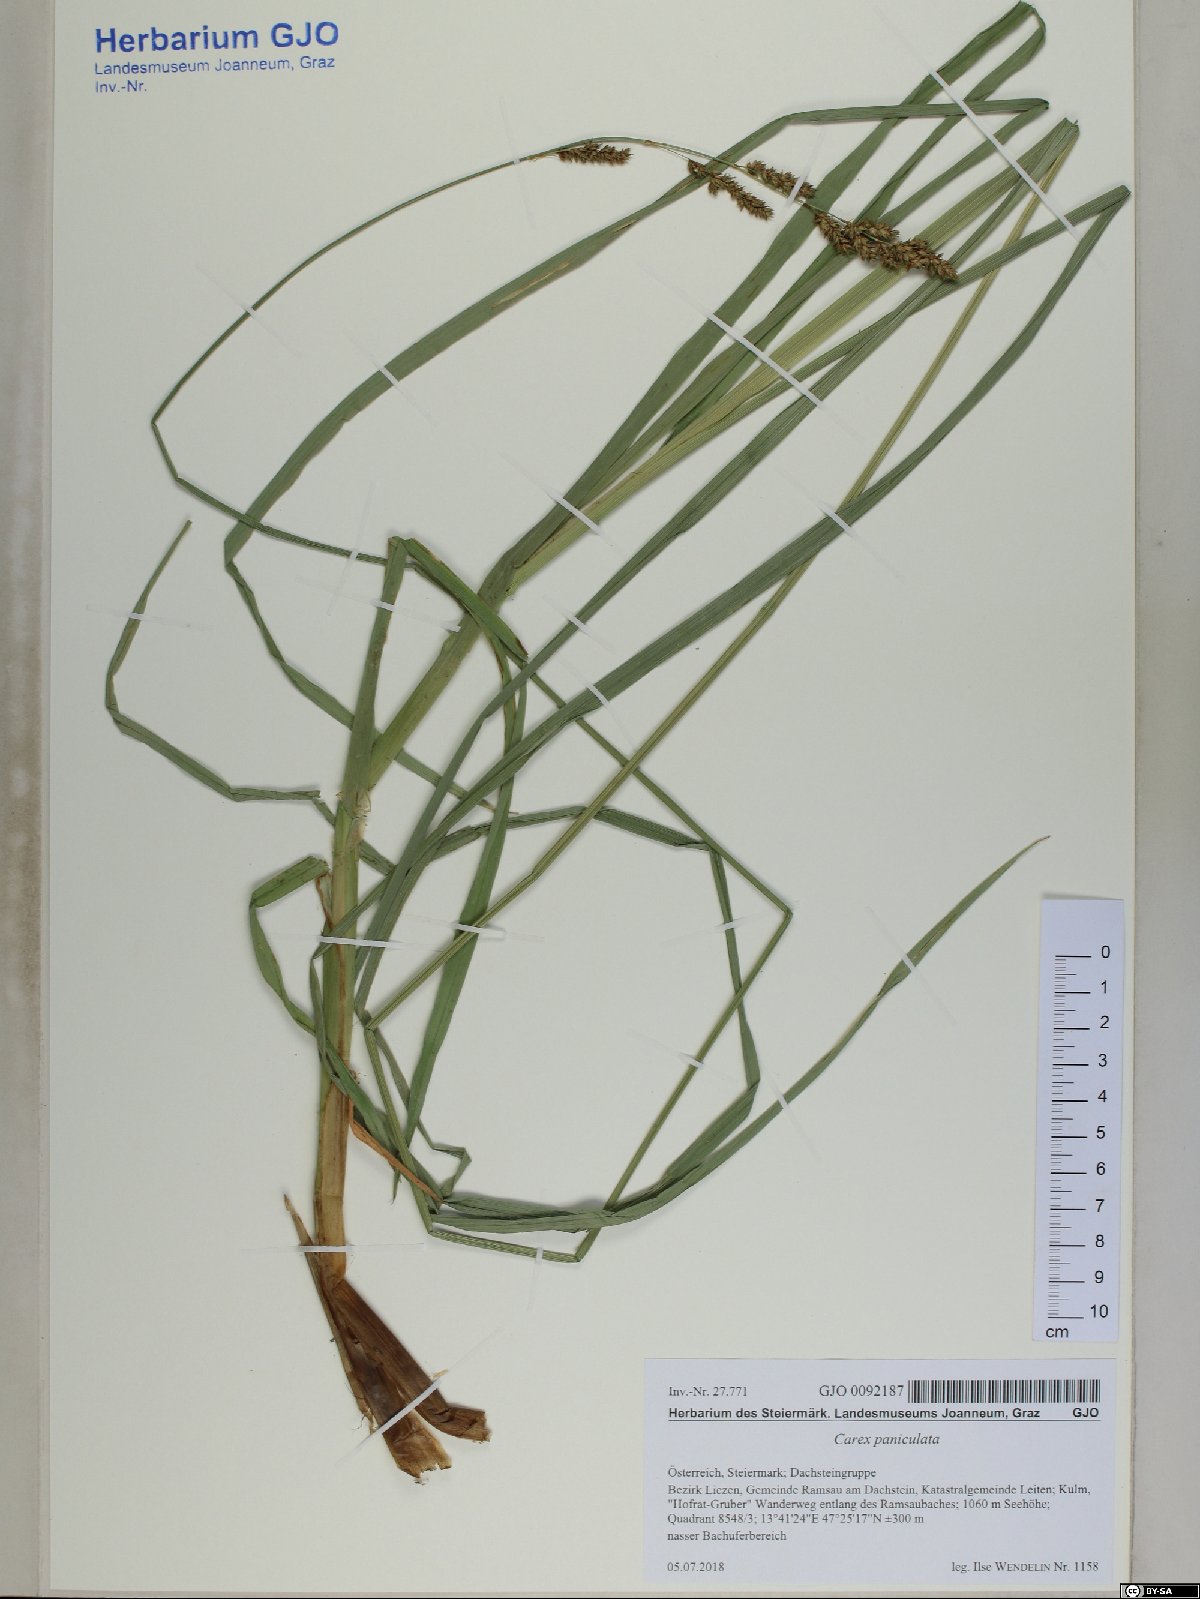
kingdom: Plantae
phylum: Tracheophyta
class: Liliopsida
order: Poales
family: Cyperaceae
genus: Carex
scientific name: Carex paniculata
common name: Greater tussock-sedge
